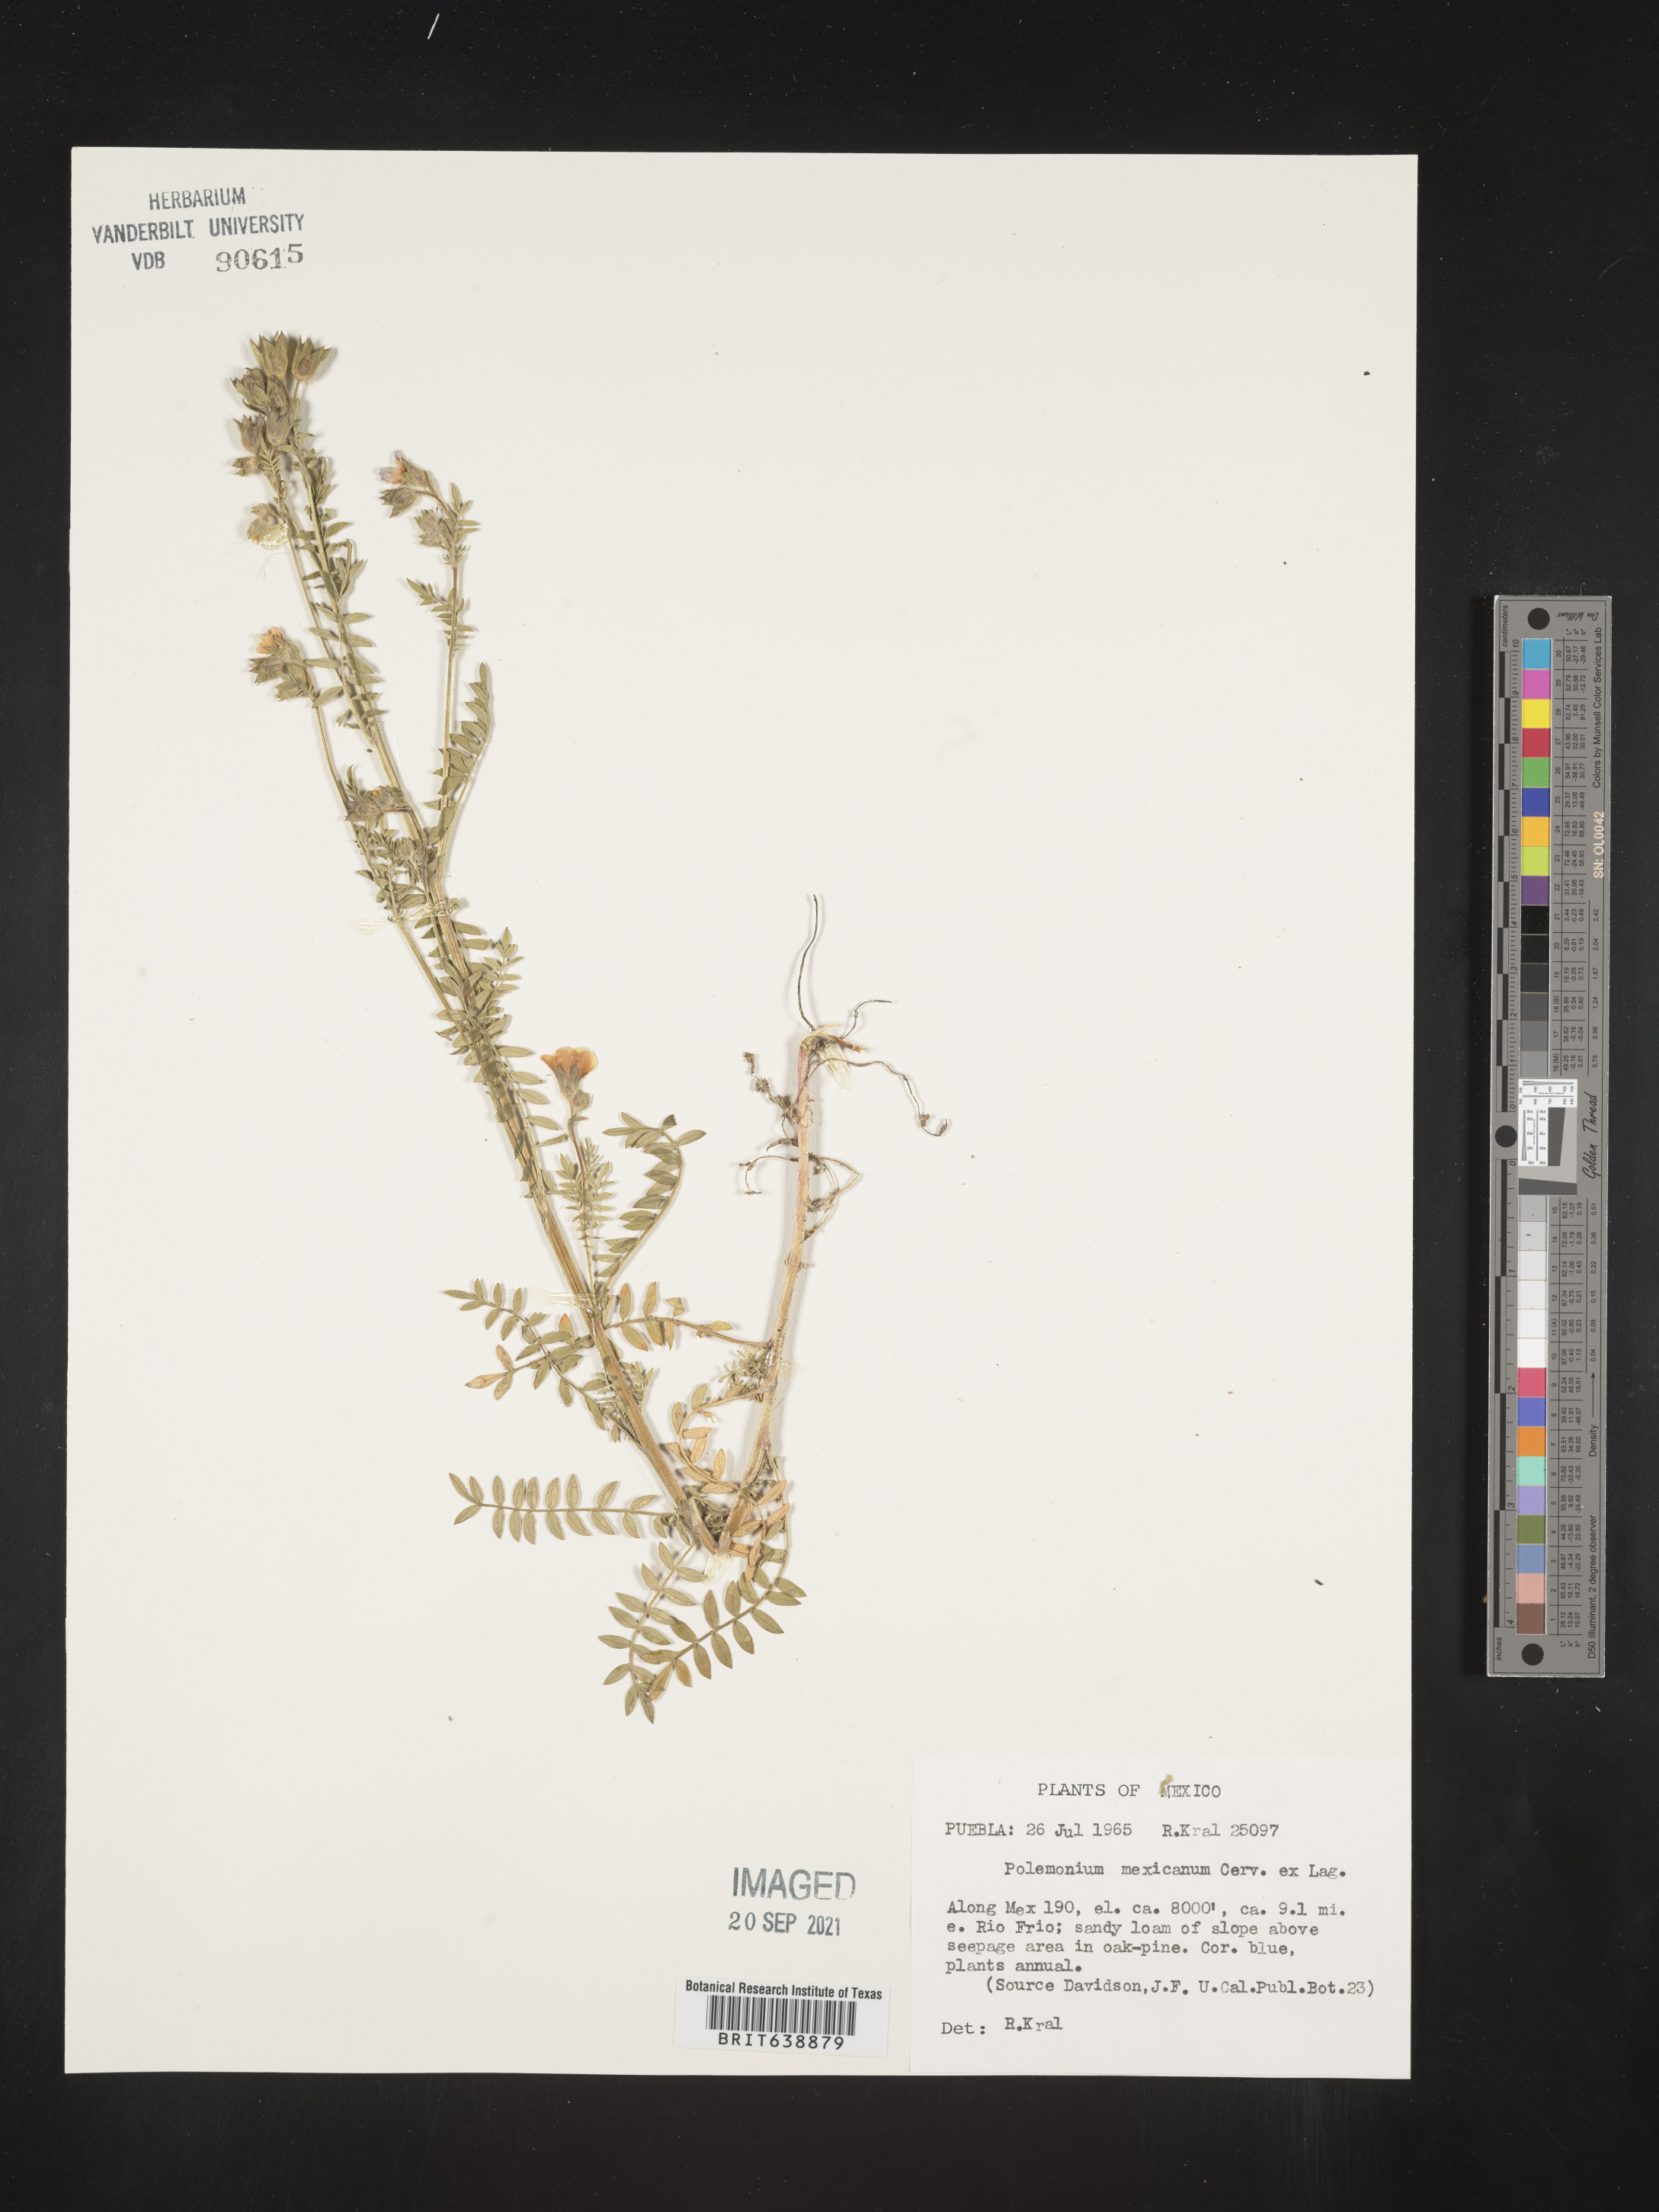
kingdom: Plantae
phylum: Tracheophyta
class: Magnoliopsida
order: Ericales
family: Polemoniaceae
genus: Polemonium
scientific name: Polemonium
